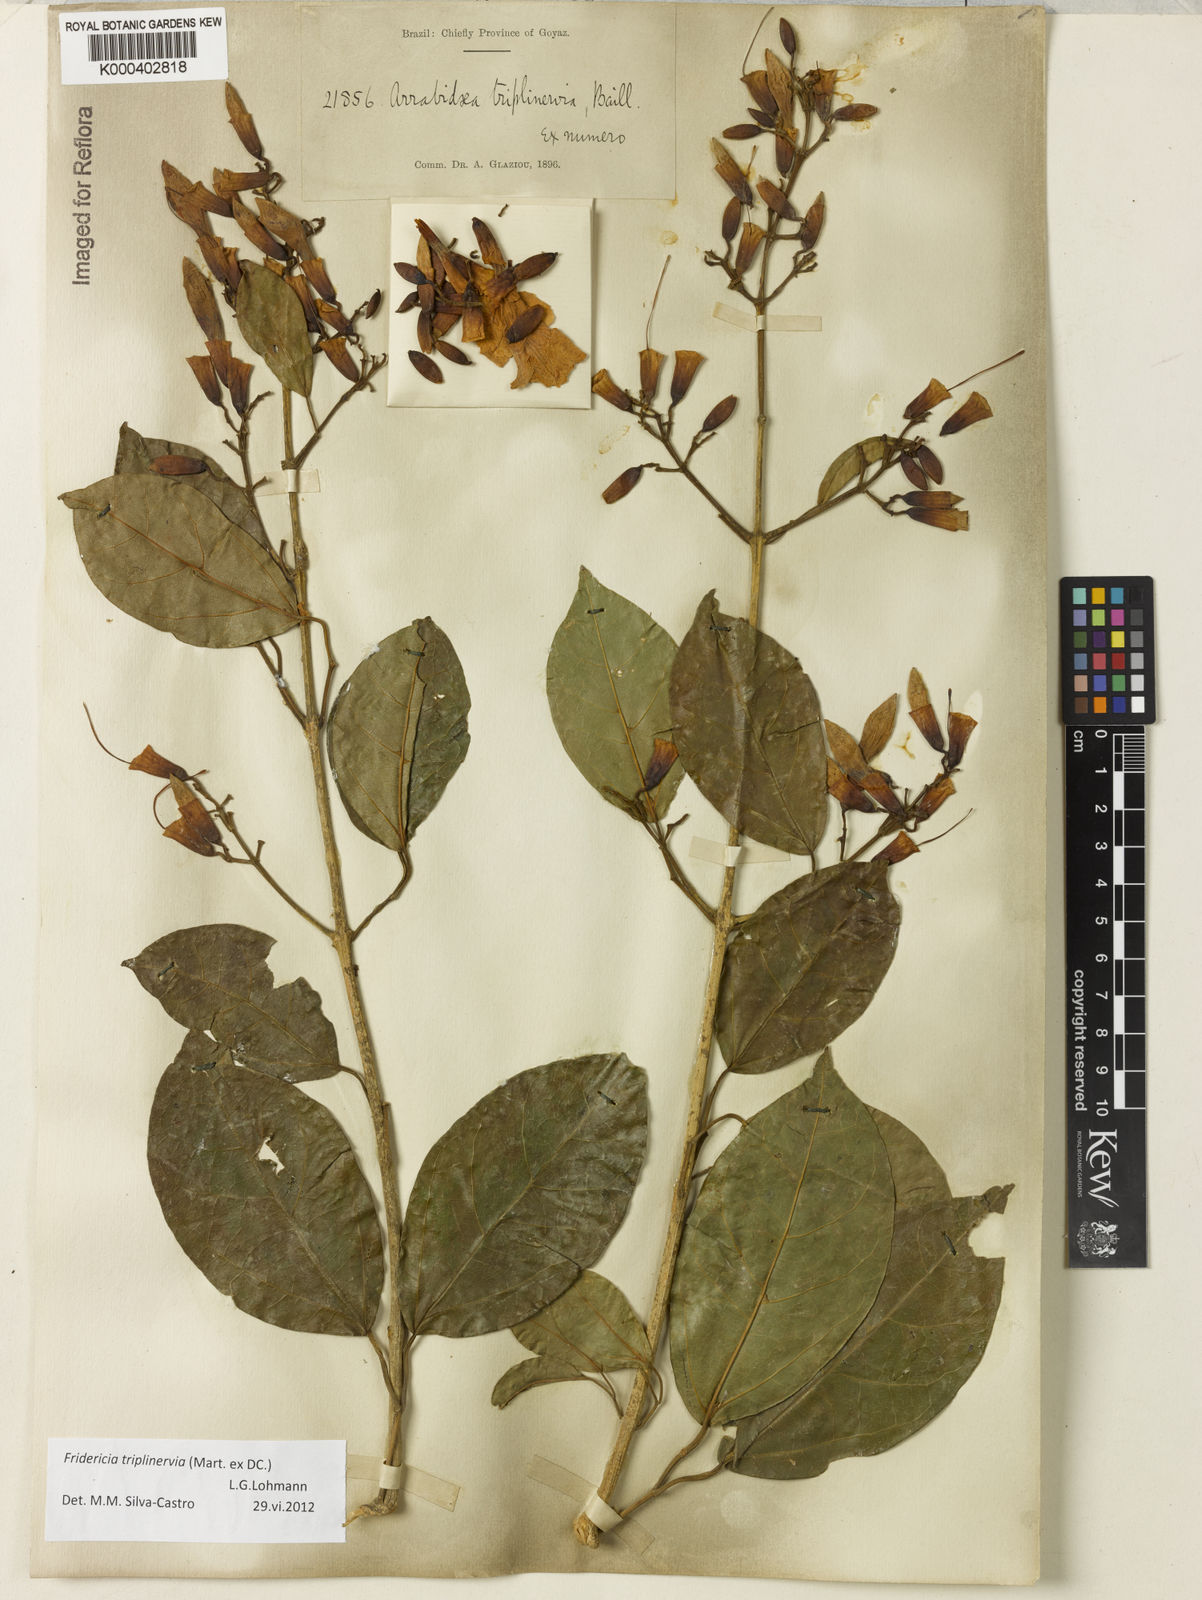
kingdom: Plantae
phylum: Tracheophyta
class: Magnoliopsida
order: Lamiales
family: Bignoniaceae
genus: Fridericia
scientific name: Fridericia triplinervia
